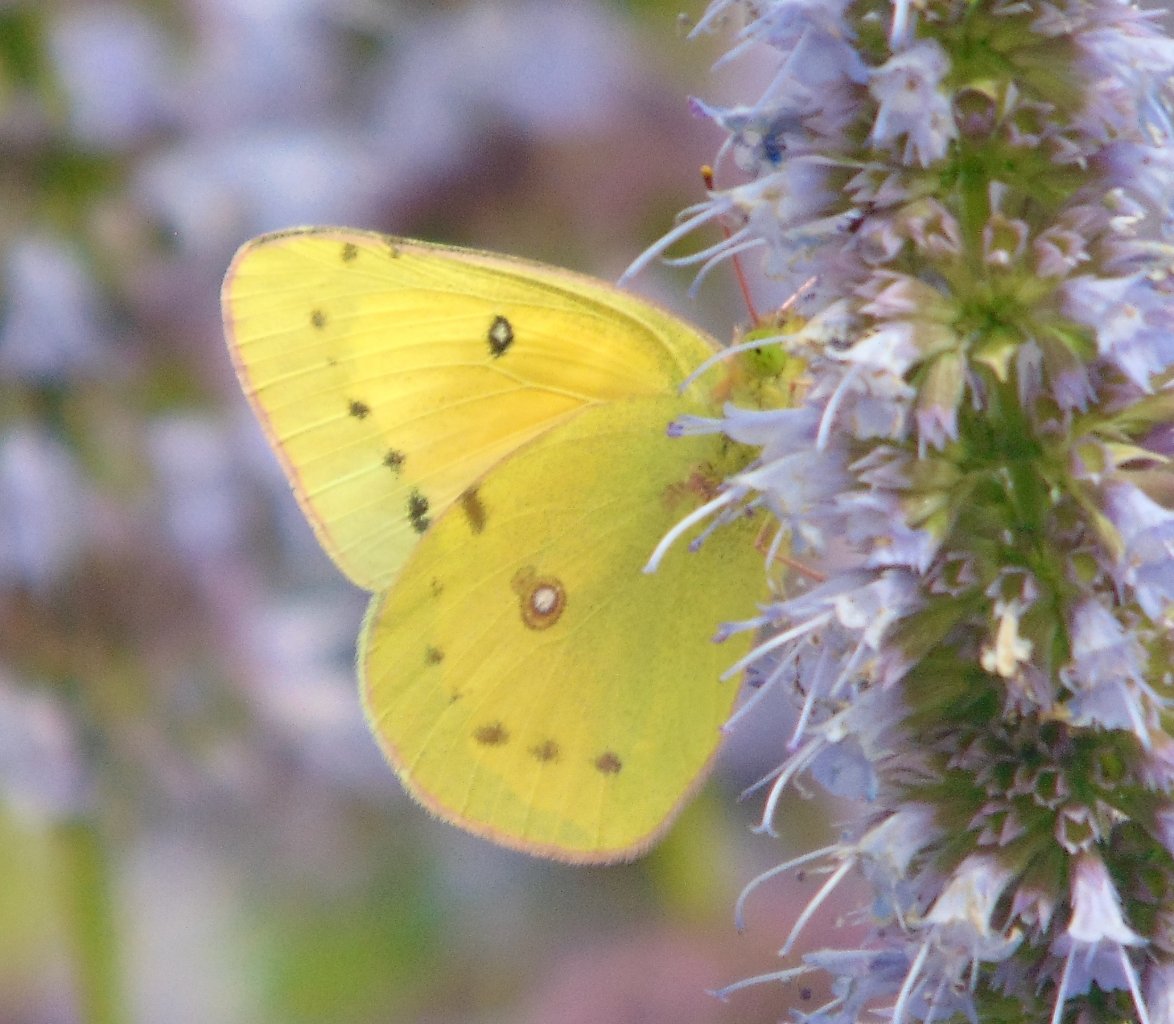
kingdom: Animalia
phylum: Arthropoda
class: Insecta
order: Lepidoptera
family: Pieridae
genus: Colias
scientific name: Colias eurytheme
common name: Orange Sulphur
